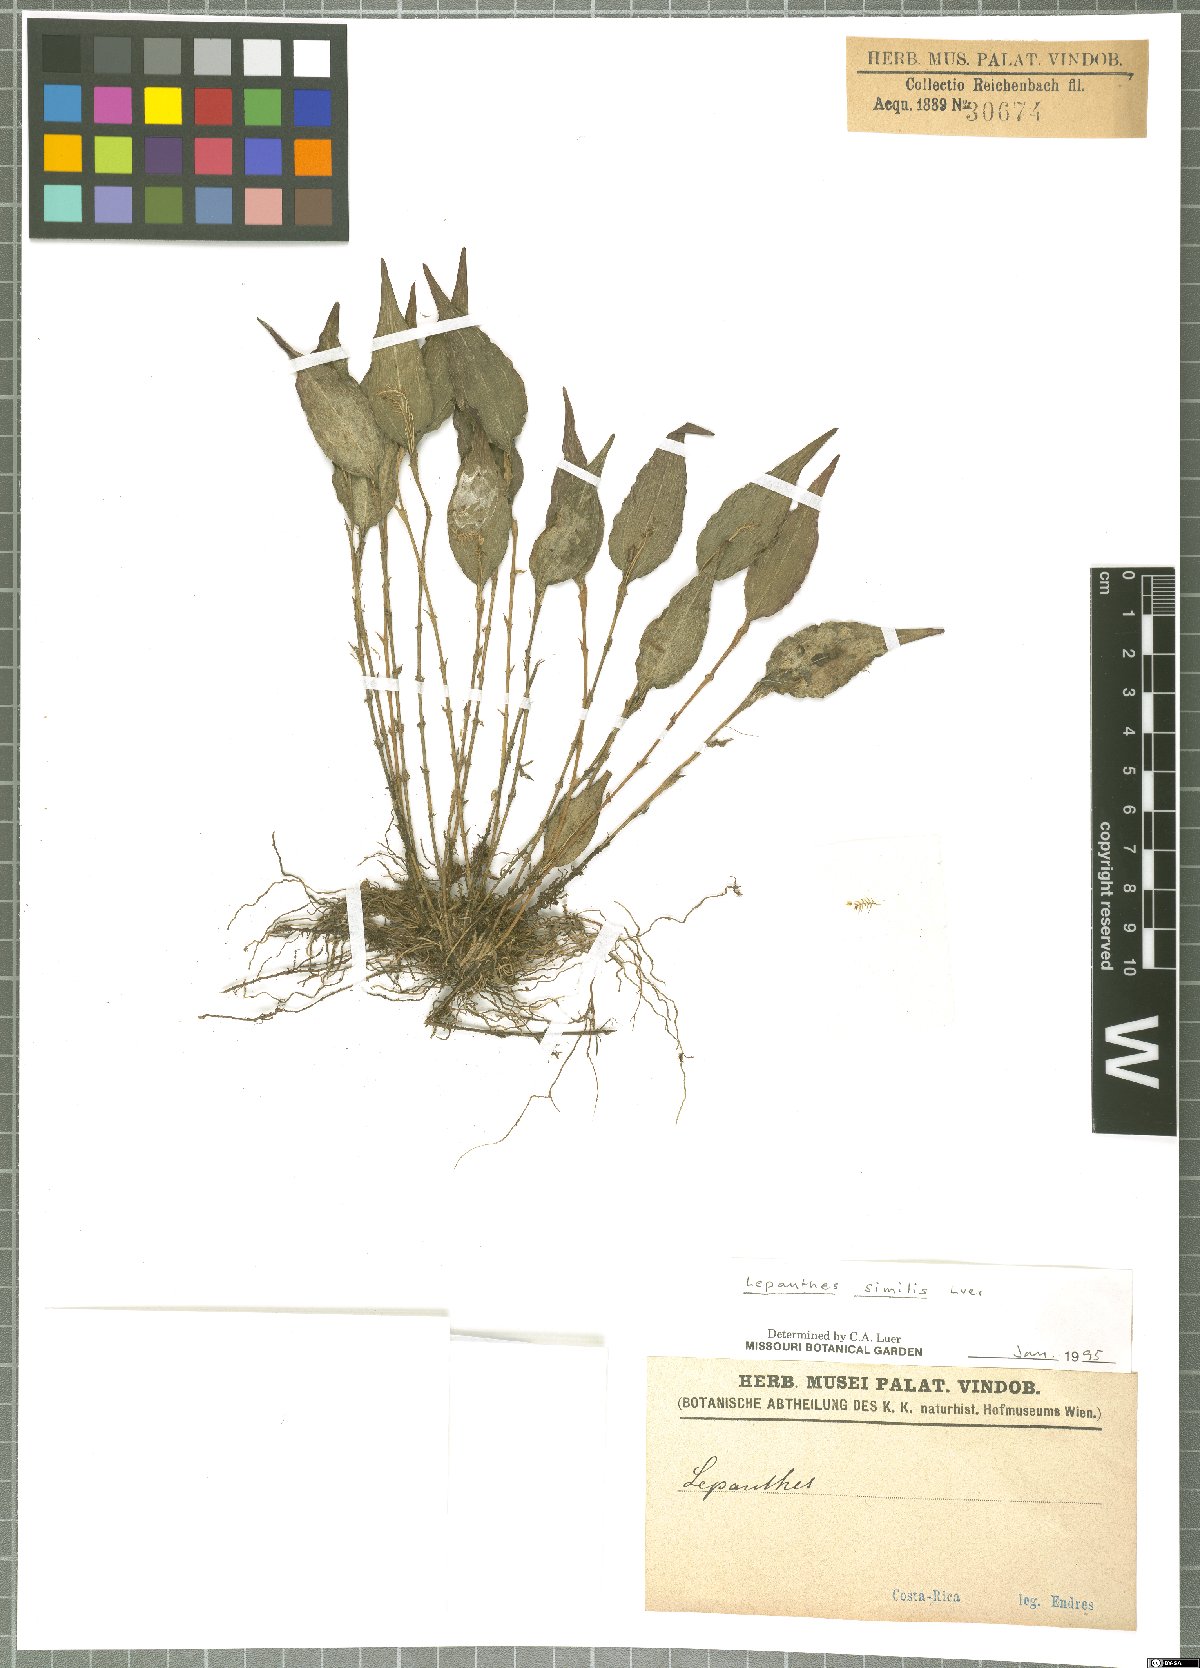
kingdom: Plantae
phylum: Tracheophyta
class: Liliopsida
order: Asparagales
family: Orchidaceae
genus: Lepanthes
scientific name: Lepanthes similis
